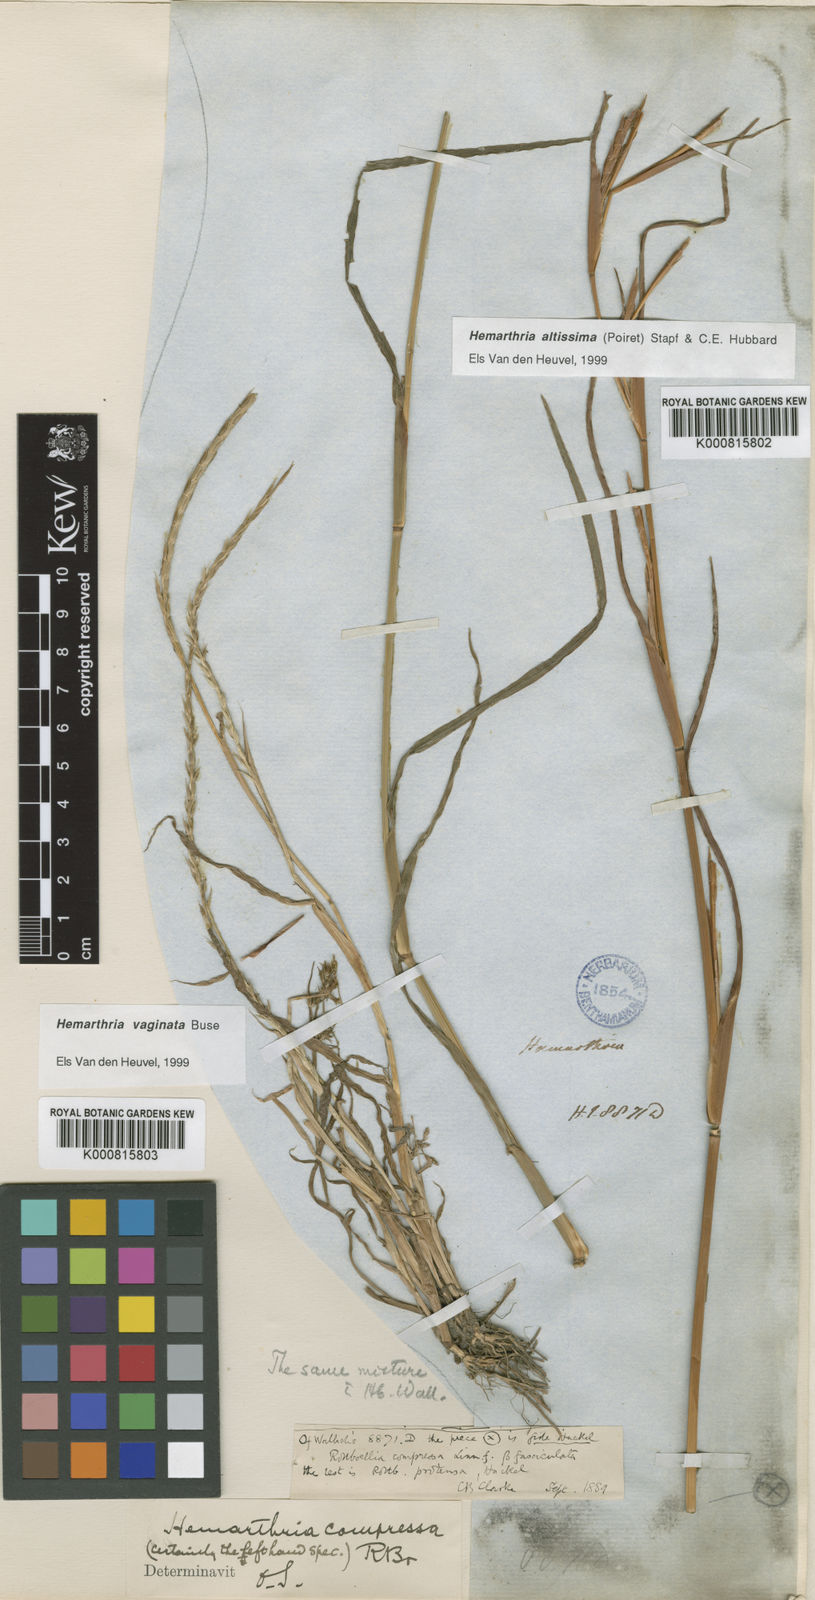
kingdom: Plantae
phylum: Tracheophyta
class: Liliopsida
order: Poales
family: Poaceae
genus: Hemarthria
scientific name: Hemarthria compressa
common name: Whip grass
